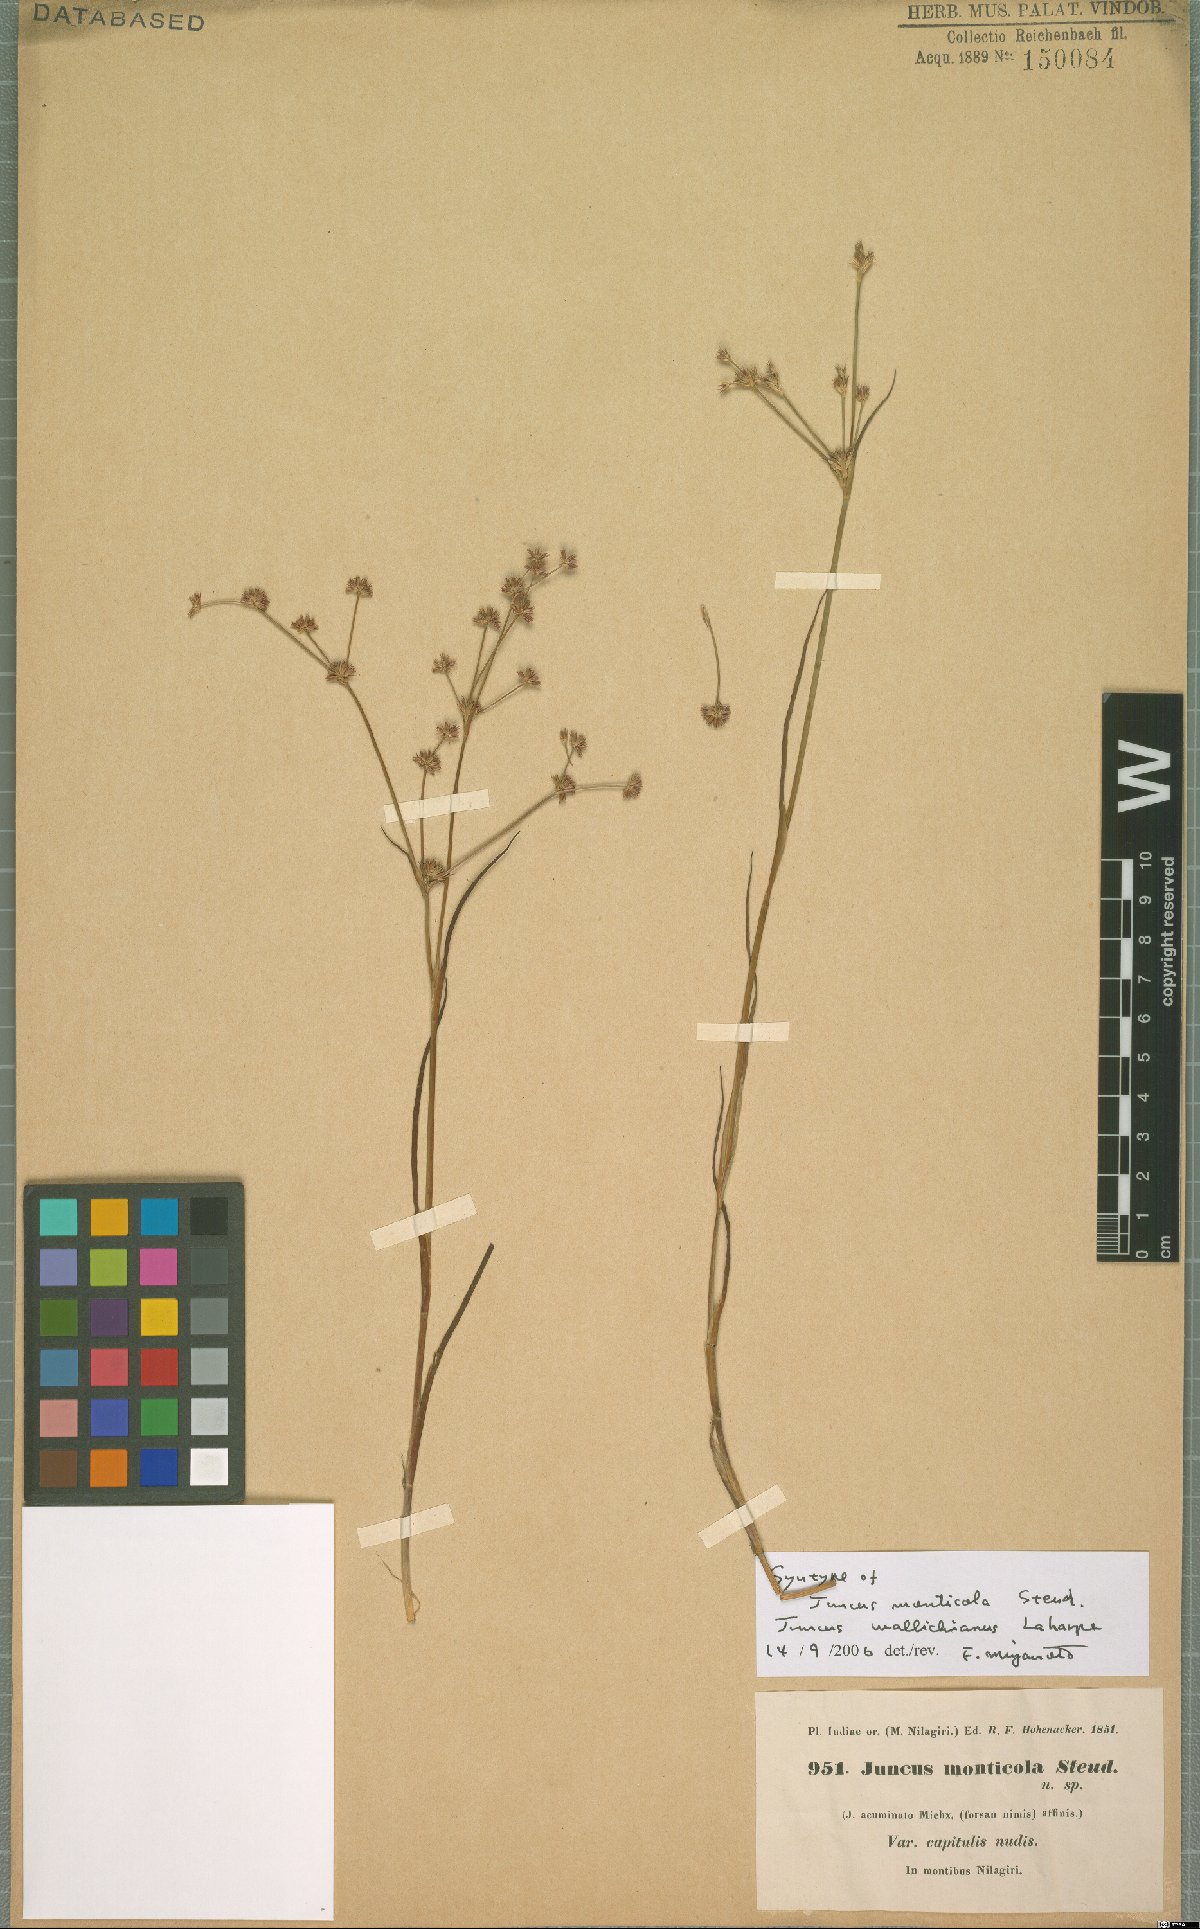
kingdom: Plantae
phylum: Tracheophyta
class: Liliopsida
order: Poales
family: Juncaceae
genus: Juncus
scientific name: Juncus wallichianus
